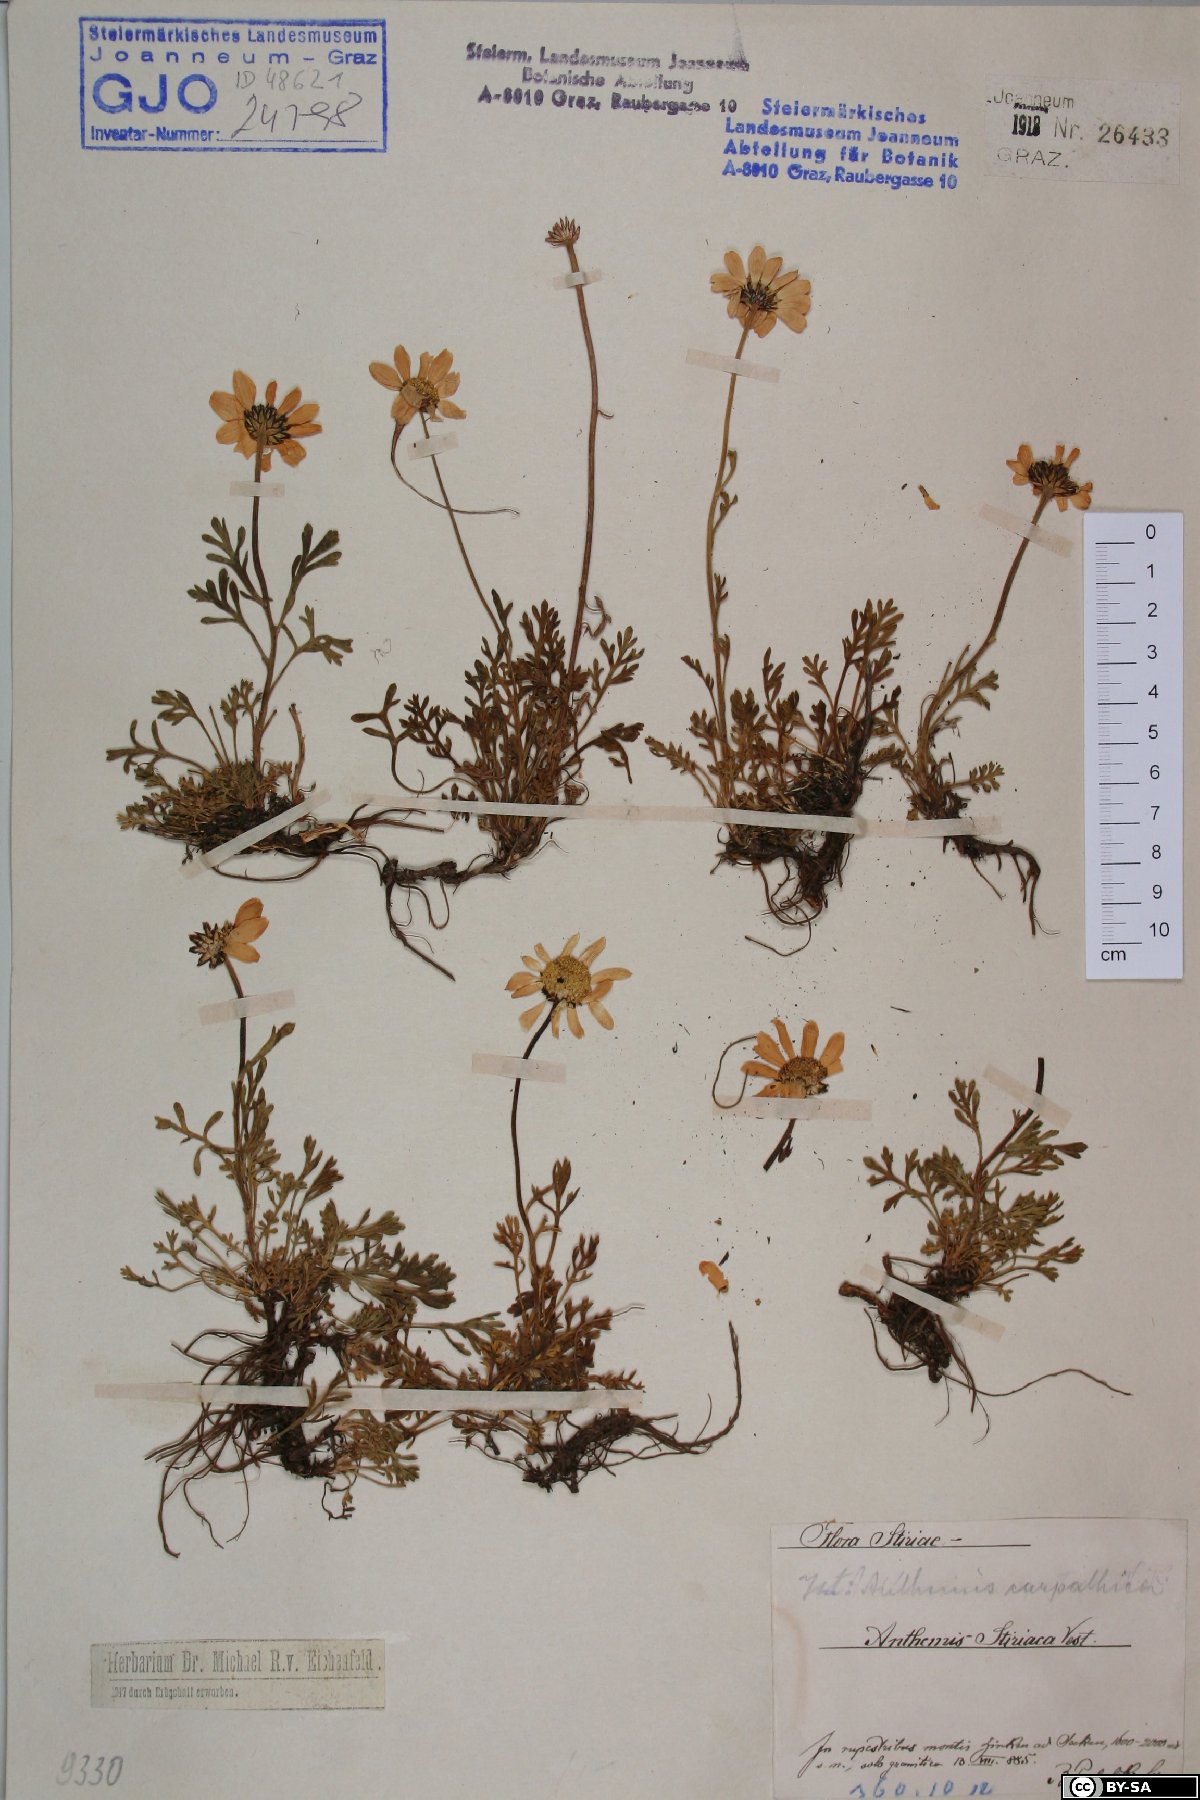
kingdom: Plantae
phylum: Tracheophyta
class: Magnoliopsida
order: Asterales
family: Asteraceae
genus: Anthemis
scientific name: Anthemis cretica
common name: Mountain dog-daisy
